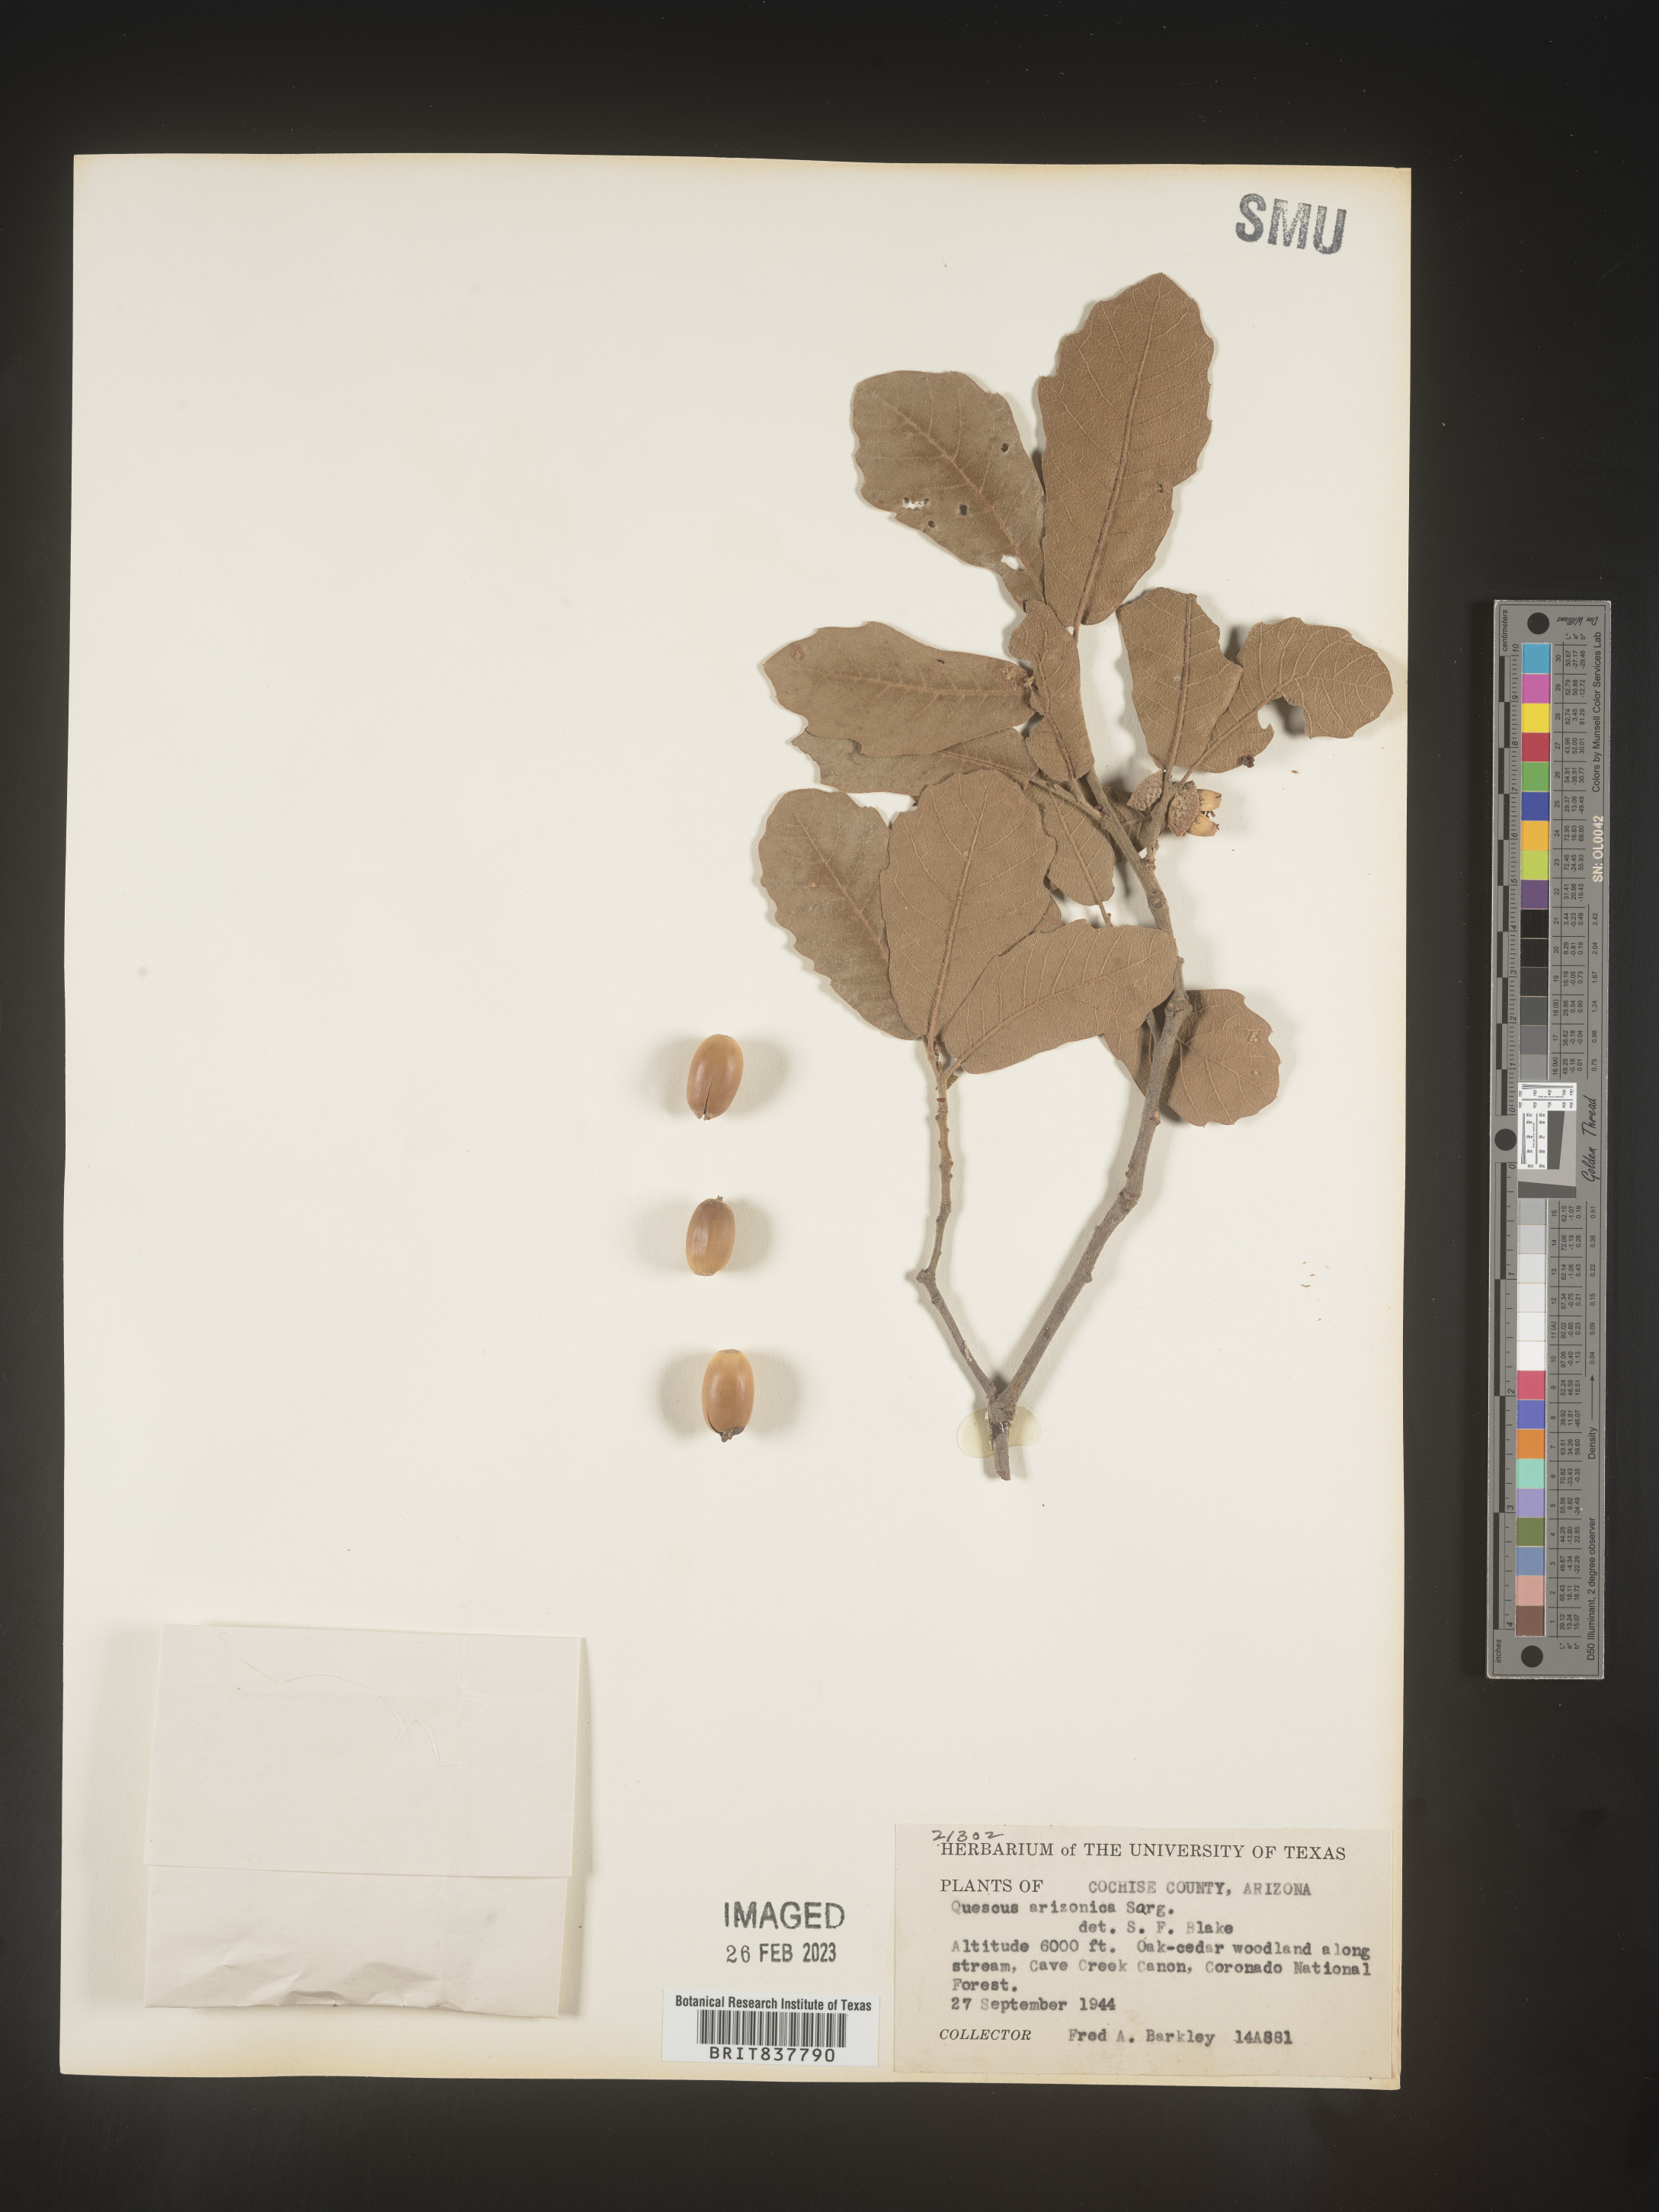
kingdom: Plantae
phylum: Tracheophyta
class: Magnoliopsida
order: Fagales
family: Fagaceae
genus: Quercus
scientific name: Quercus arizonica
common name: Arizona white oak
